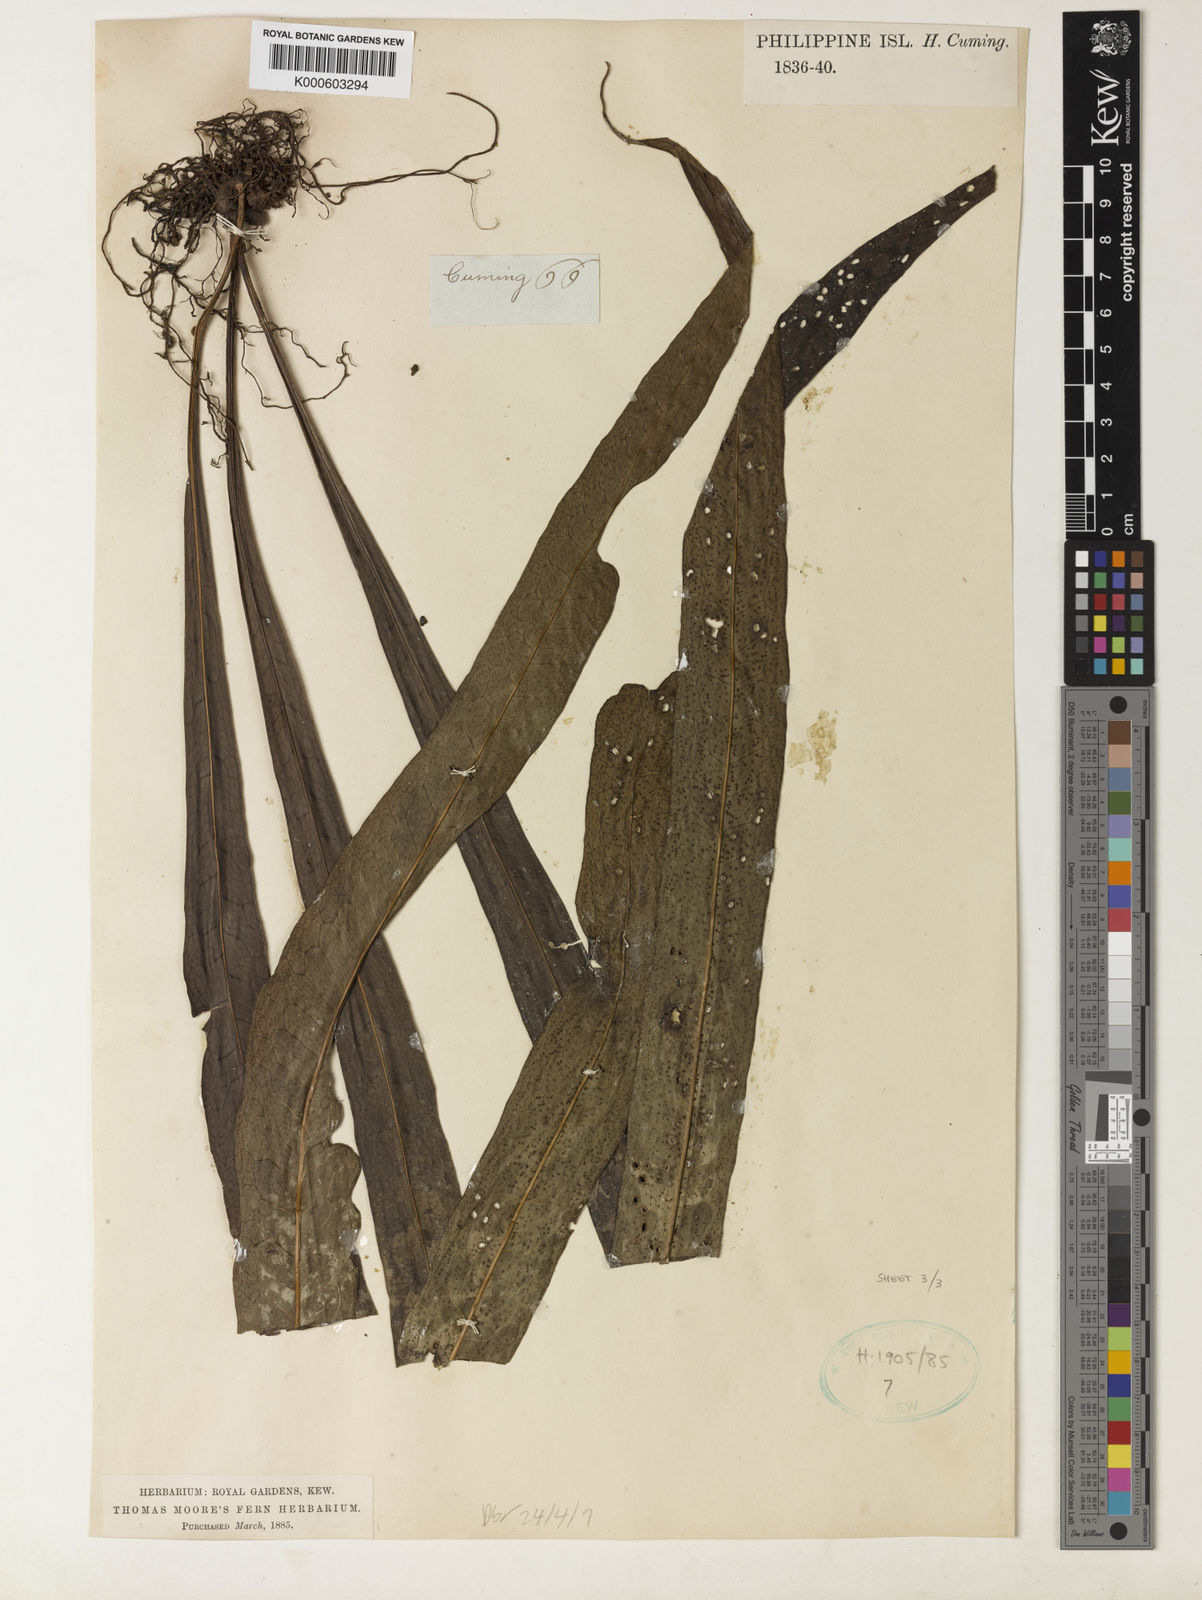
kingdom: Plantae
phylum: Tracheophyta
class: Polypodiopsida
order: Polypodiales
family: Polypodiaceae
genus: Microsorum
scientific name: Microsorum
